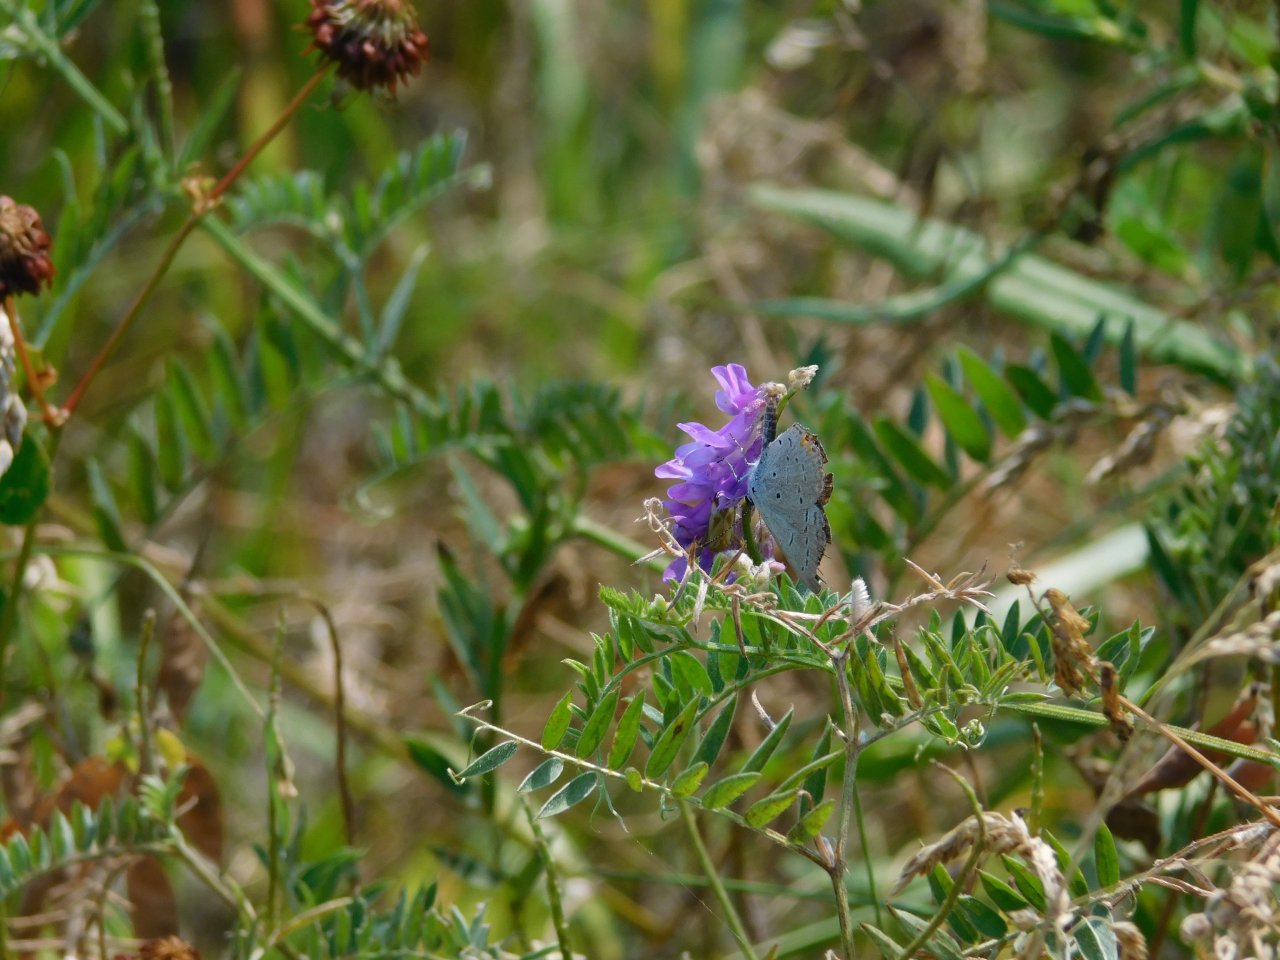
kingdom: Animalia
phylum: Arthropoda
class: Insecta
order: Lepidoptera
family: Lycaenidae
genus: Elkalyce
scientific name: Elkalyce comyntas
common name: Eastern Tailed-Blue
